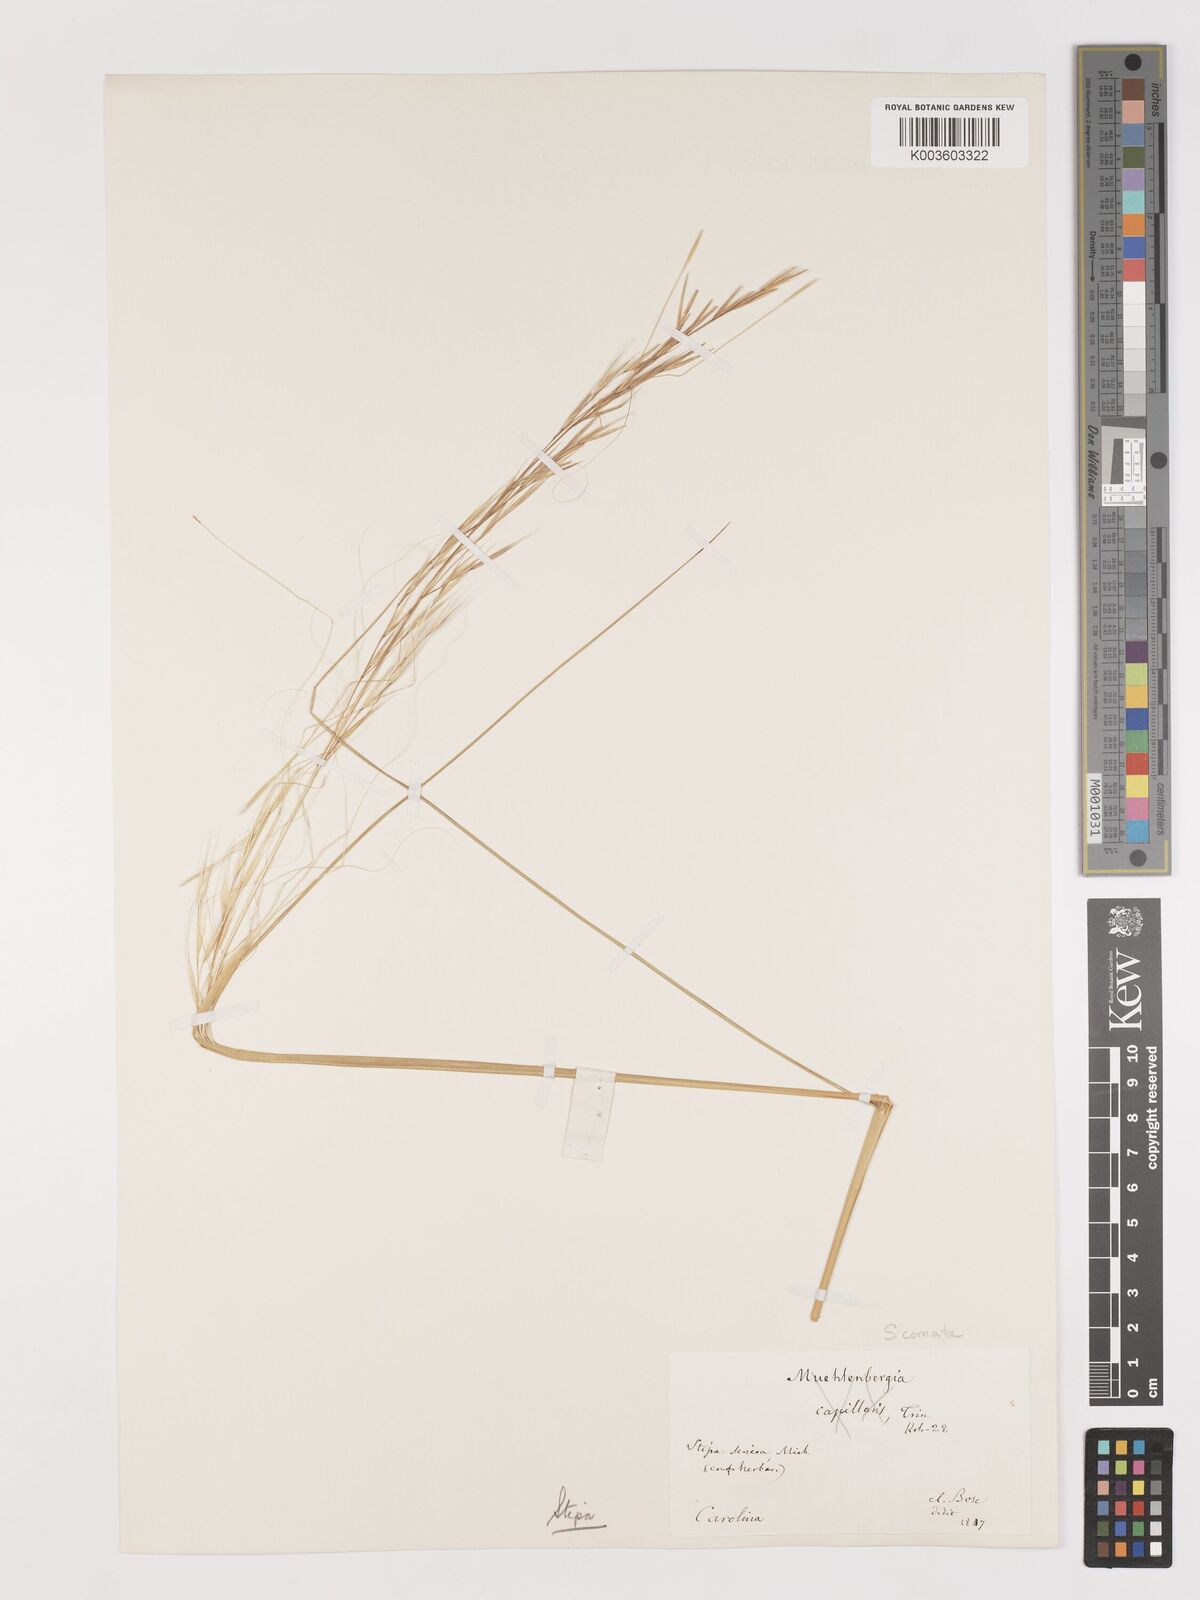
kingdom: Plantae
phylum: Tracheophyta
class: Liliopsida
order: Poales
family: Poaceae
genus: Hesperostipa
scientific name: Hesperostipa comata
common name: Needle-and-thread grass
